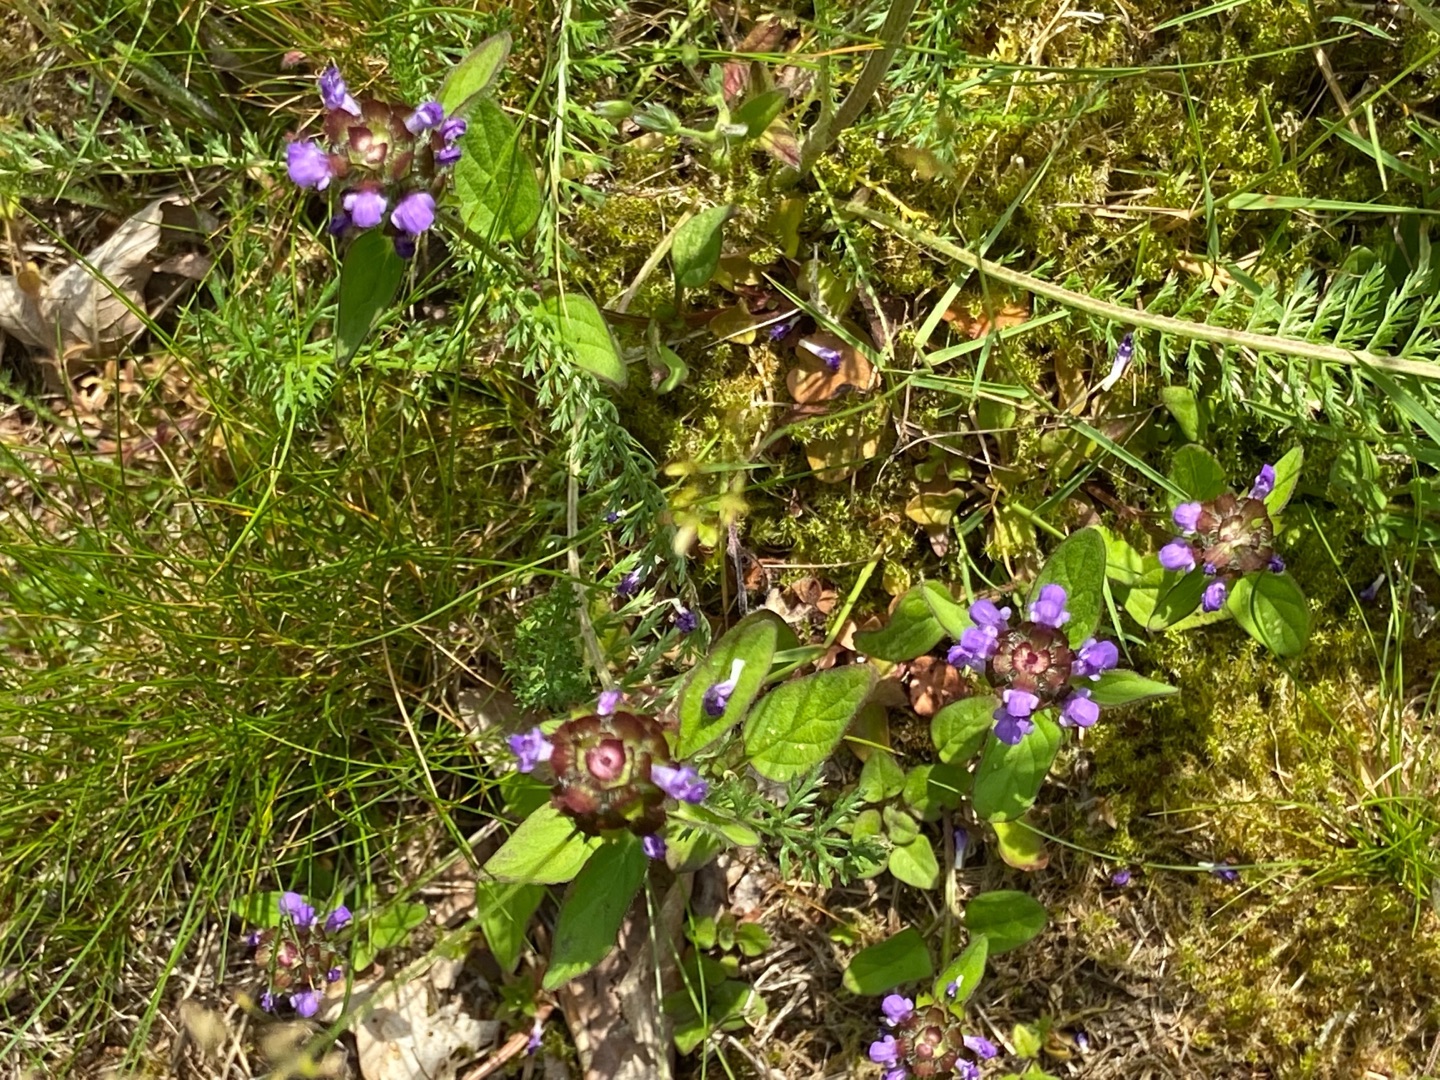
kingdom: Plantae
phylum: Tracheophyta
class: Magnoliopsida
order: Lamiales
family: Lamiaceae
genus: Prunella
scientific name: Prunella vulgaris
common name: Almindelig brunelle
